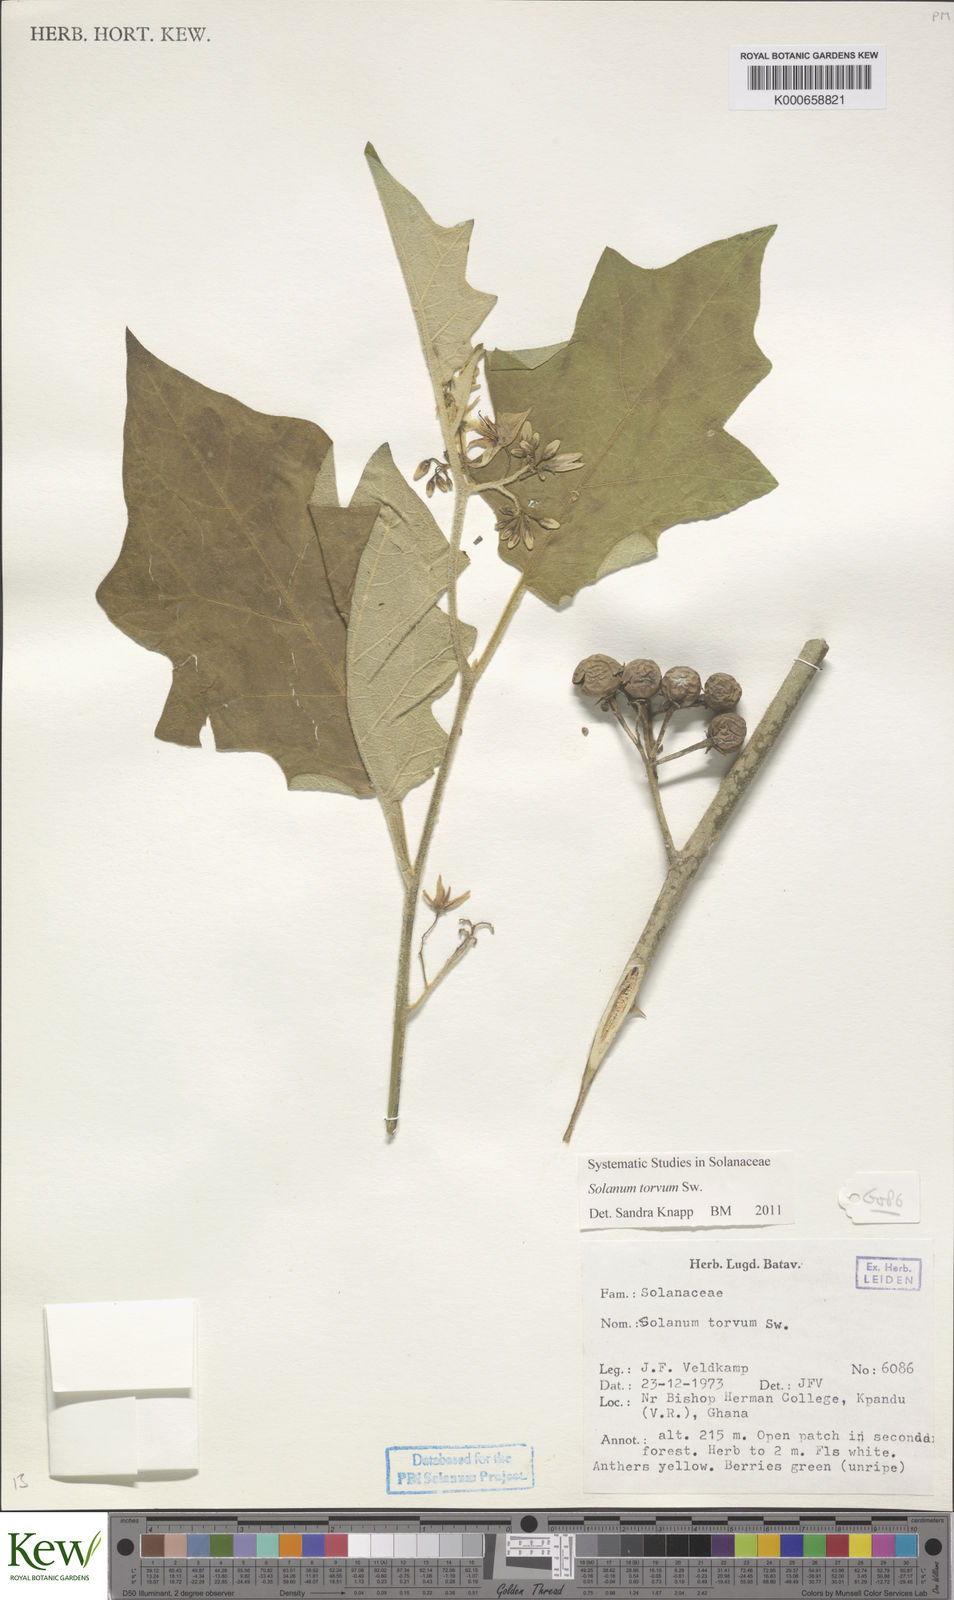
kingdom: Plantae
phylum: Tracheophyta
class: Magnoliopsida
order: Solanales
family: Solanaceae
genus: Solanum
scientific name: Solanum torvum
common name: Turkey berry
